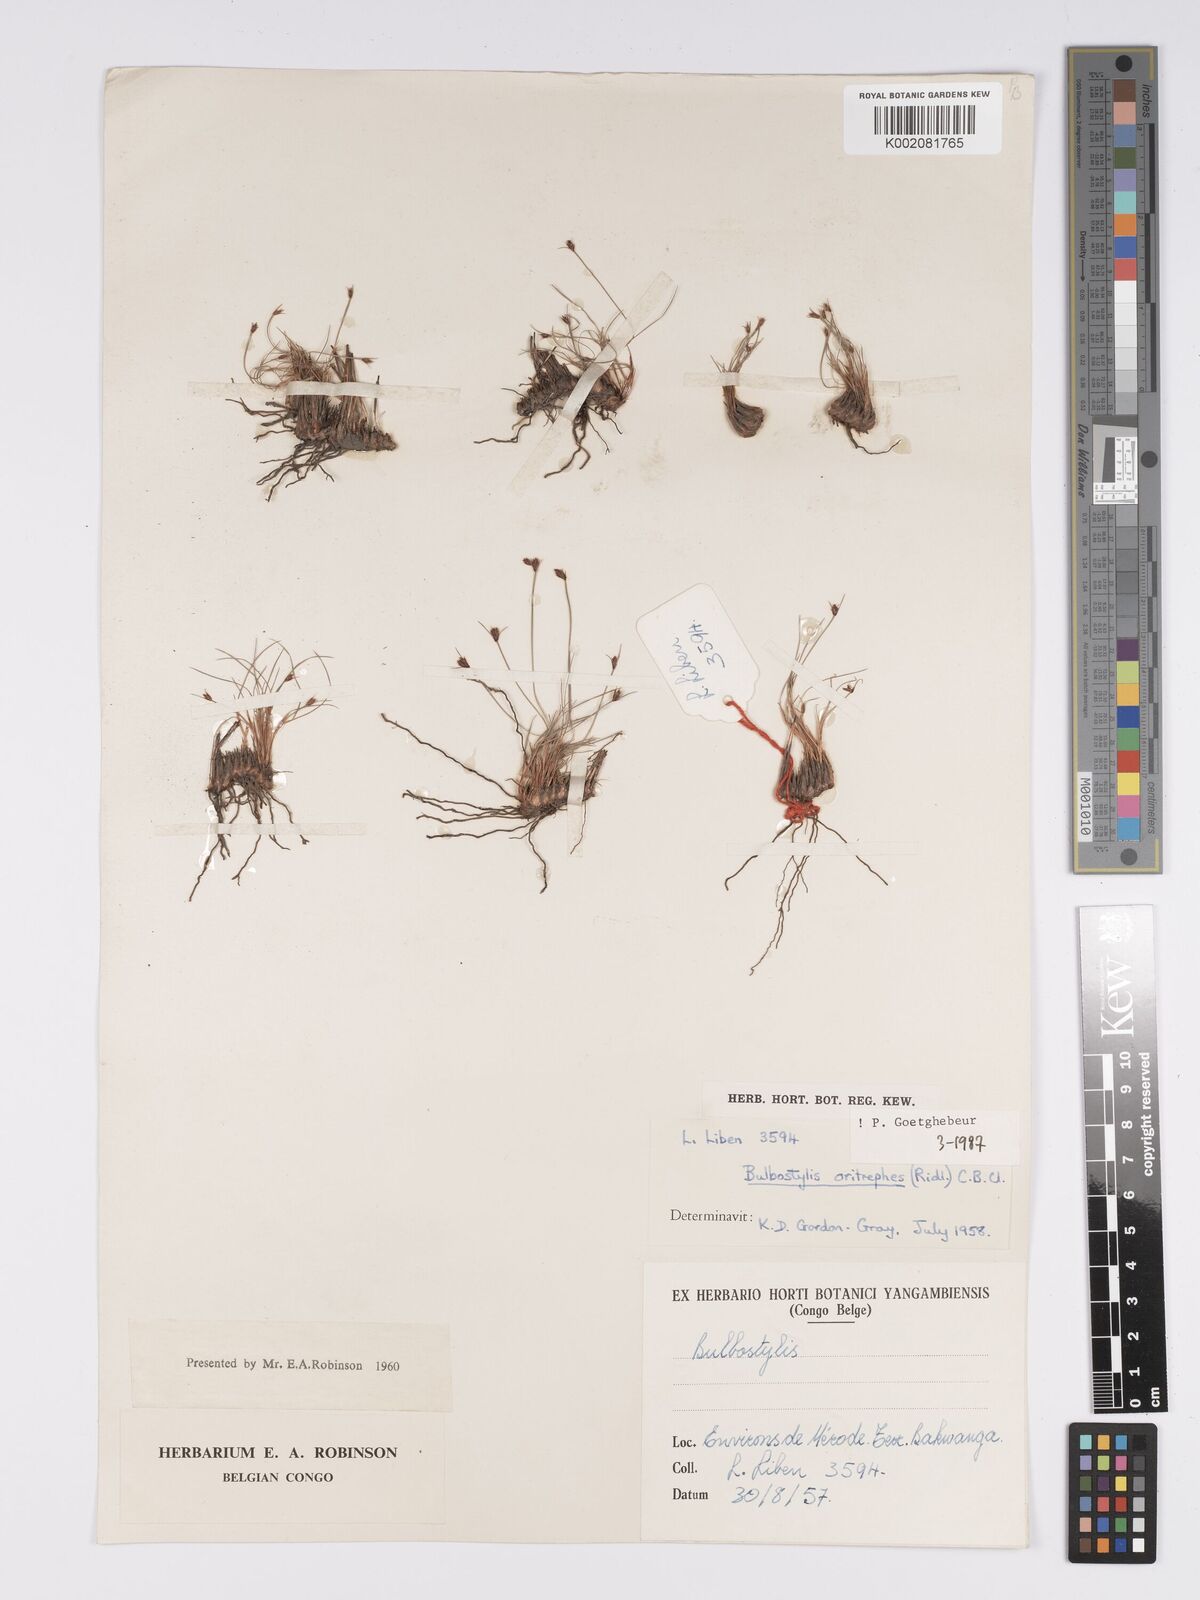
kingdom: Plantae
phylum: Tracheophyta
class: Liliopsida
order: Poales
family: Cyperaceae
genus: Bulbostylis
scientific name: Bulbostylis oritrephes
